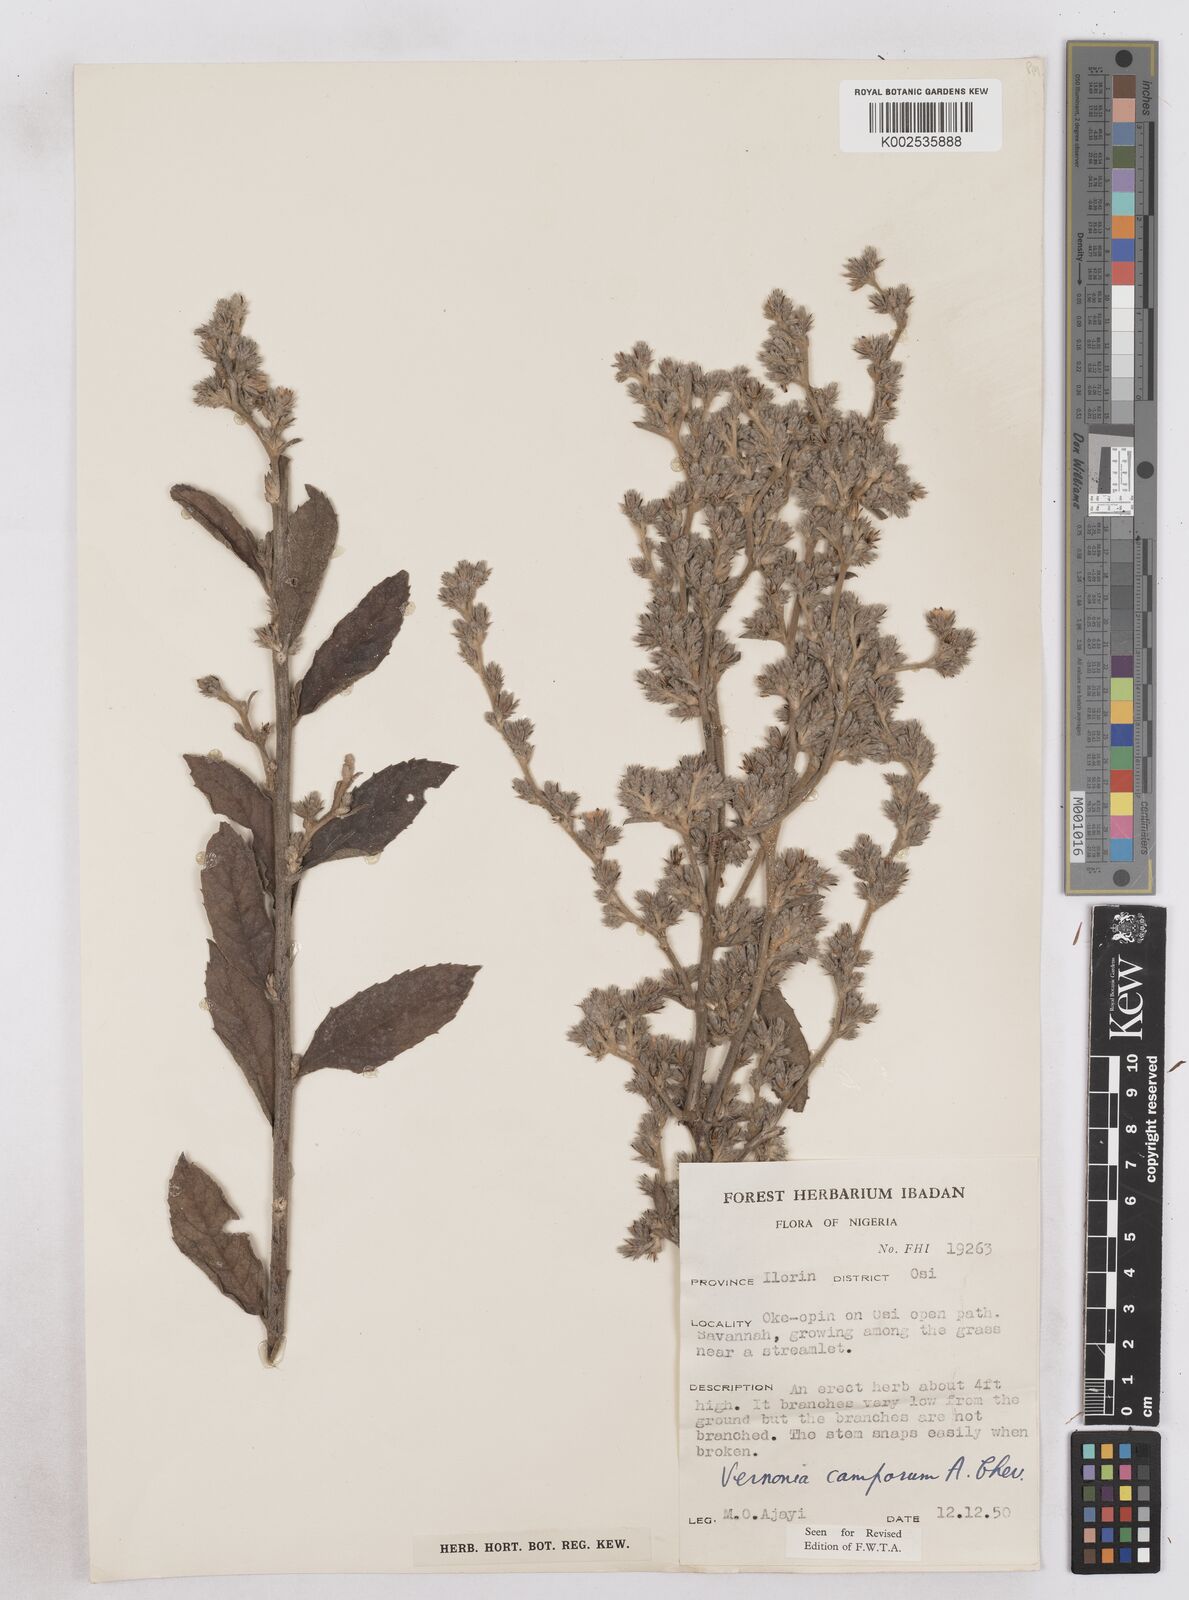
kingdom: Plantae
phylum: Tracheophyta
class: Magnoliopsida
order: Asterales
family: Asteraceae
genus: Vernoniastrum
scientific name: Vernoniastrum camporum
